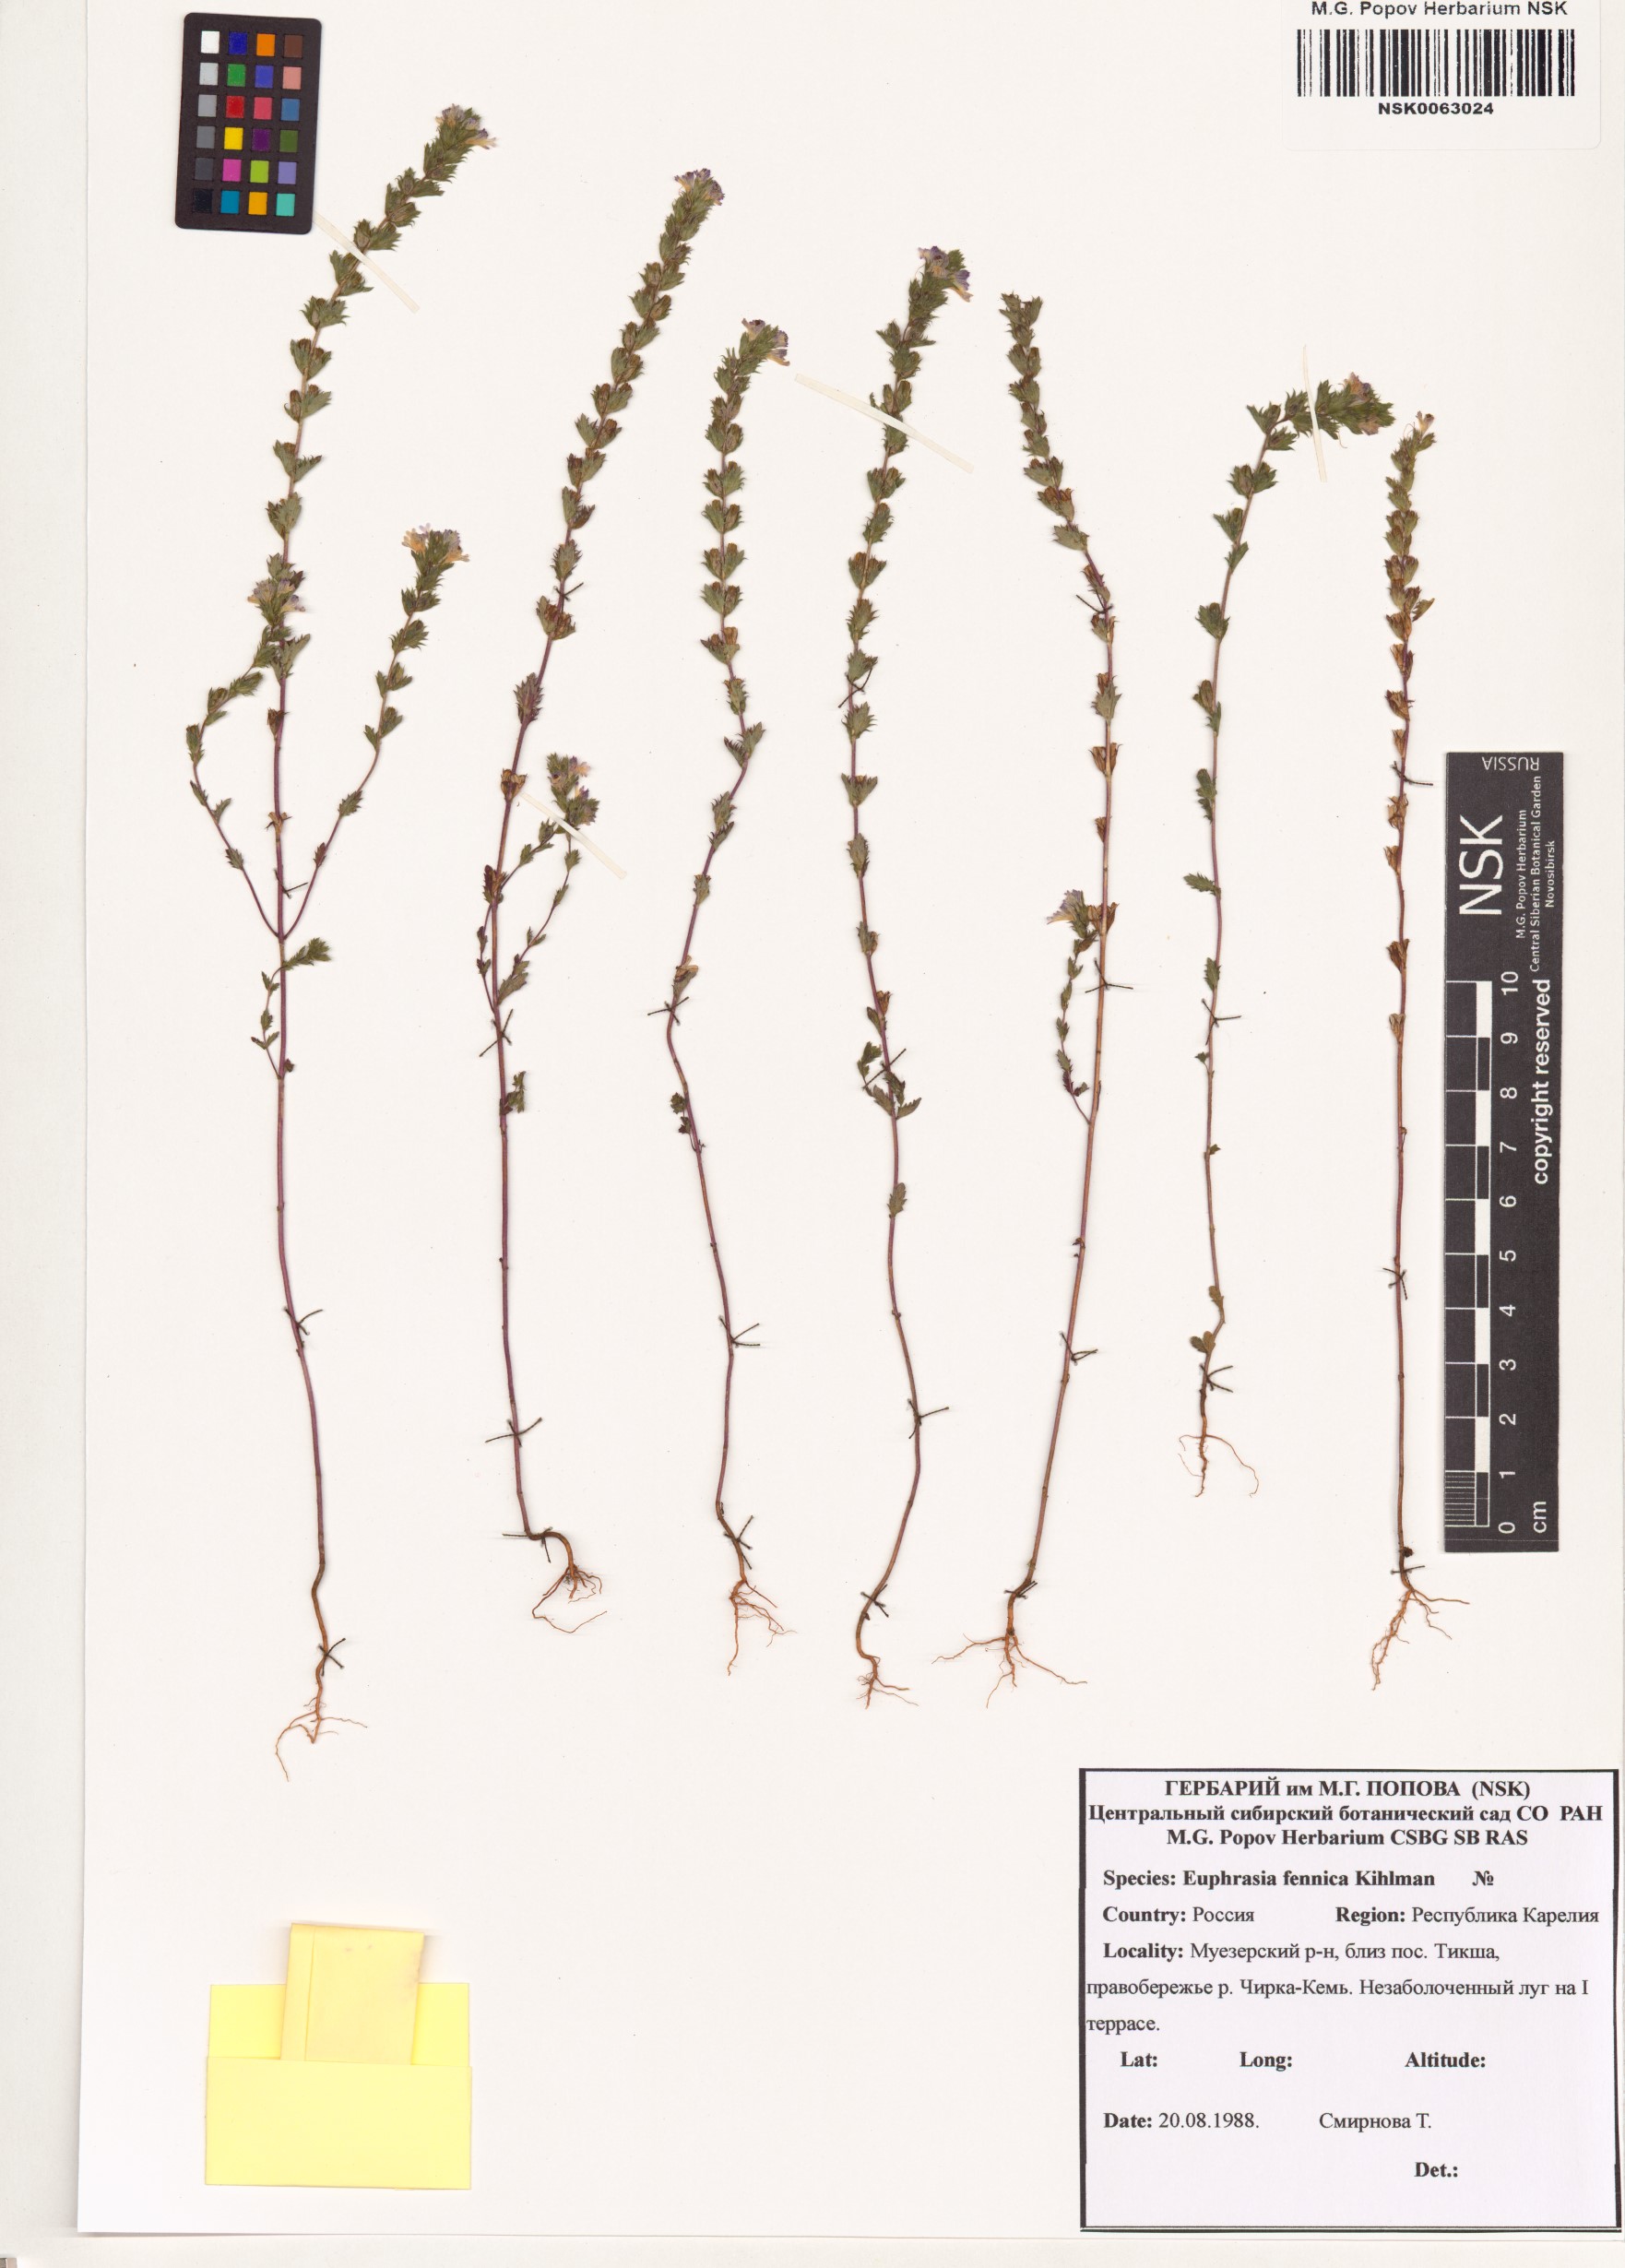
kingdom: Plantae
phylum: Tracheophyta
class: Magnoliopsida
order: Lamiales
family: Orobanchaceae
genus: Euphrasia
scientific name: Euphrasia officinalis
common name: Eyebright
